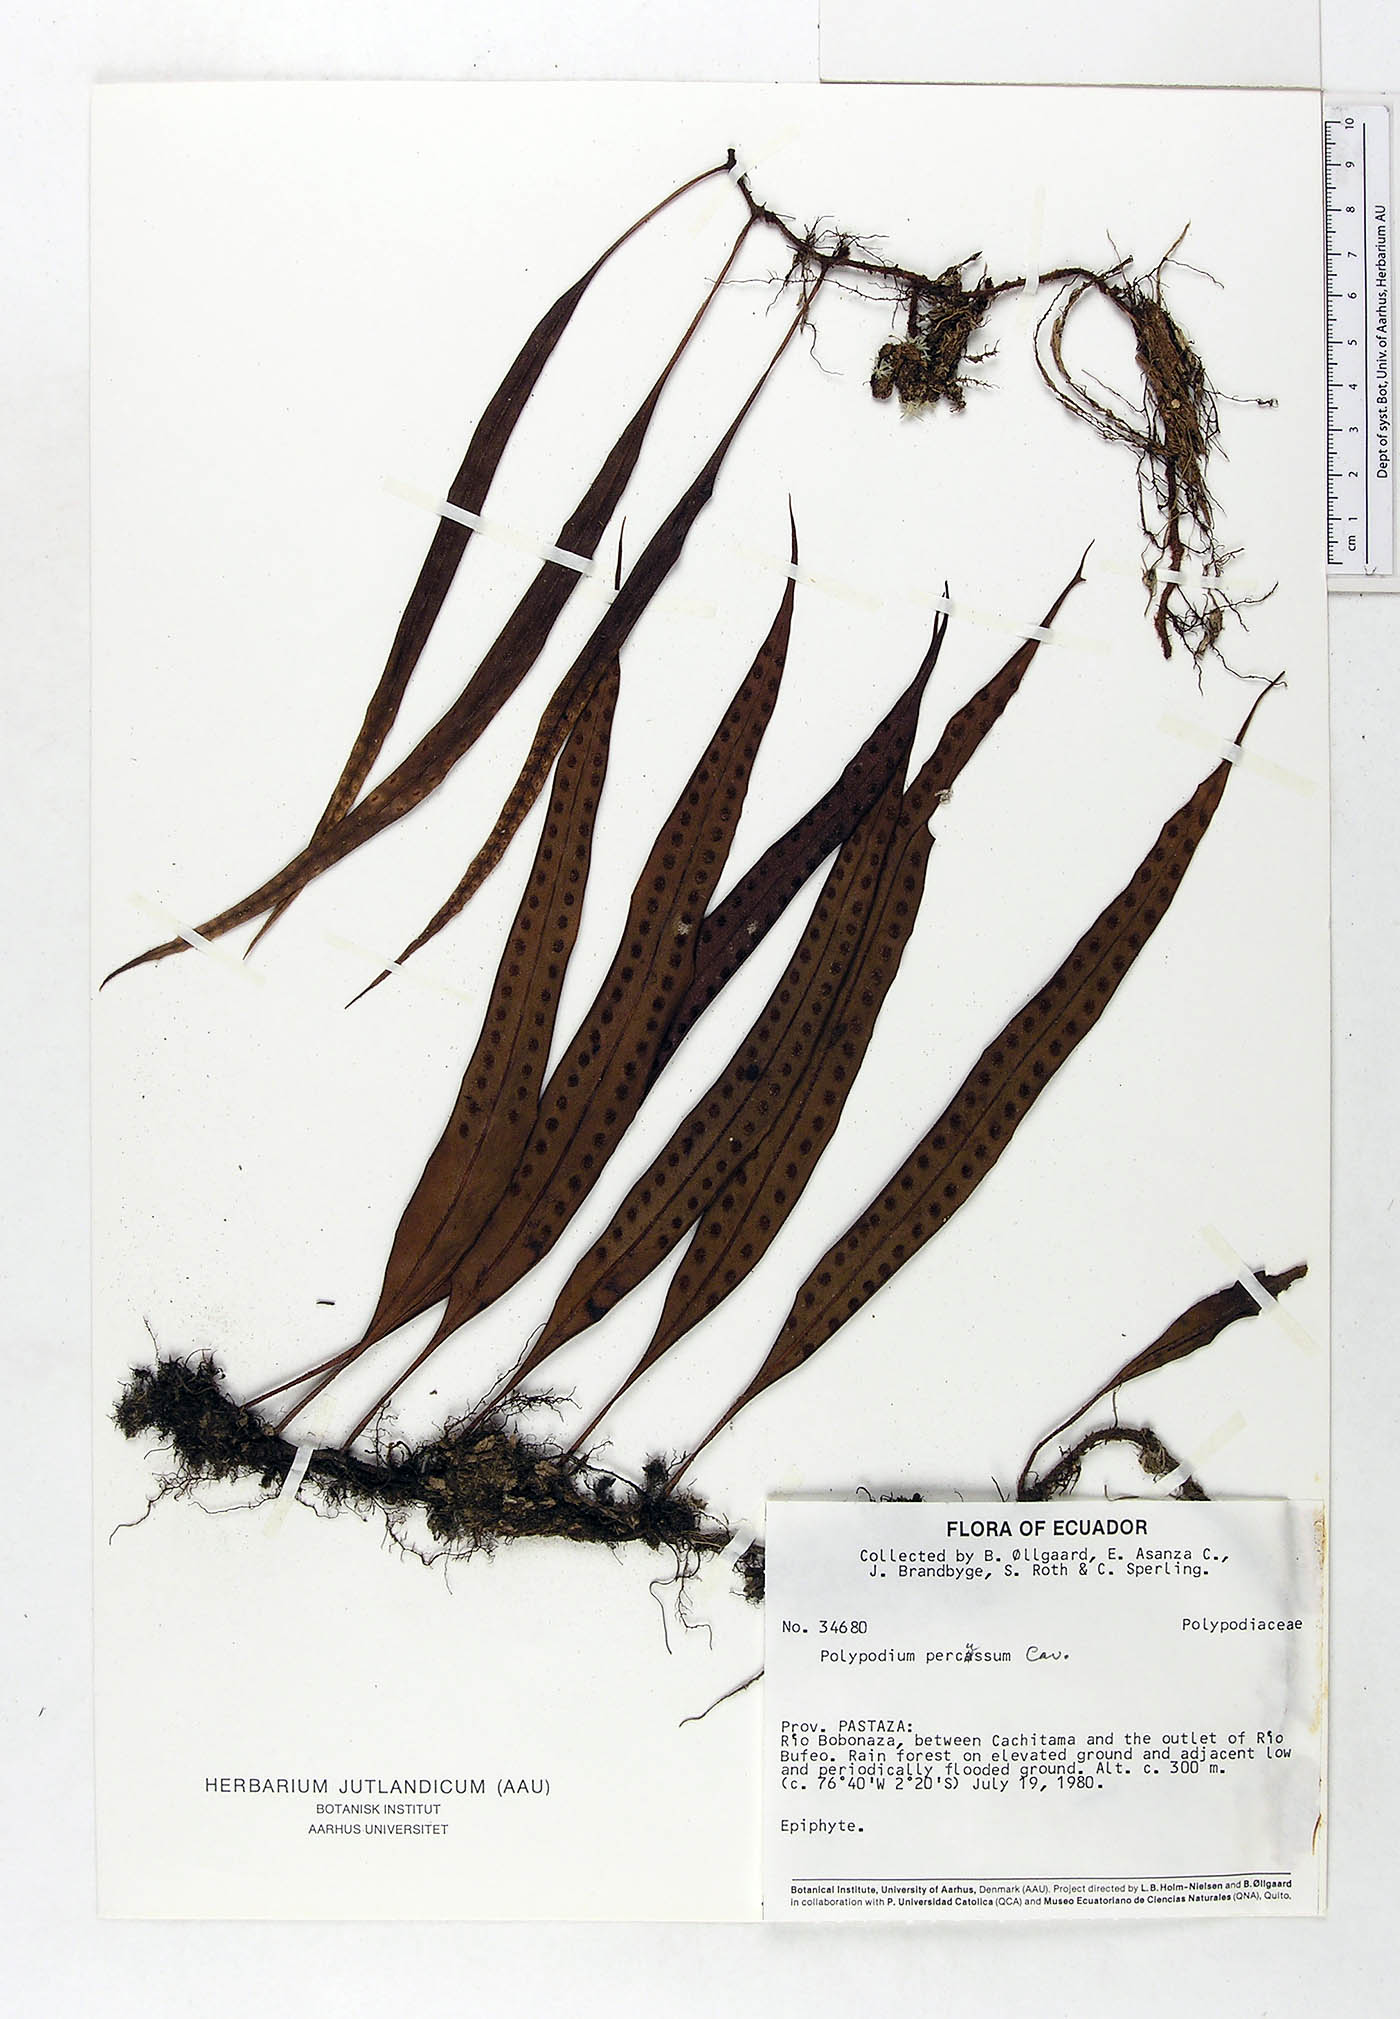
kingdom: Plantae
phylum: Tracheophyta
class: Polypodiopsida
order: Polypodiales
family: Polypodiaceae
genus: Microgramma
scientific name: Microgramma percussa
